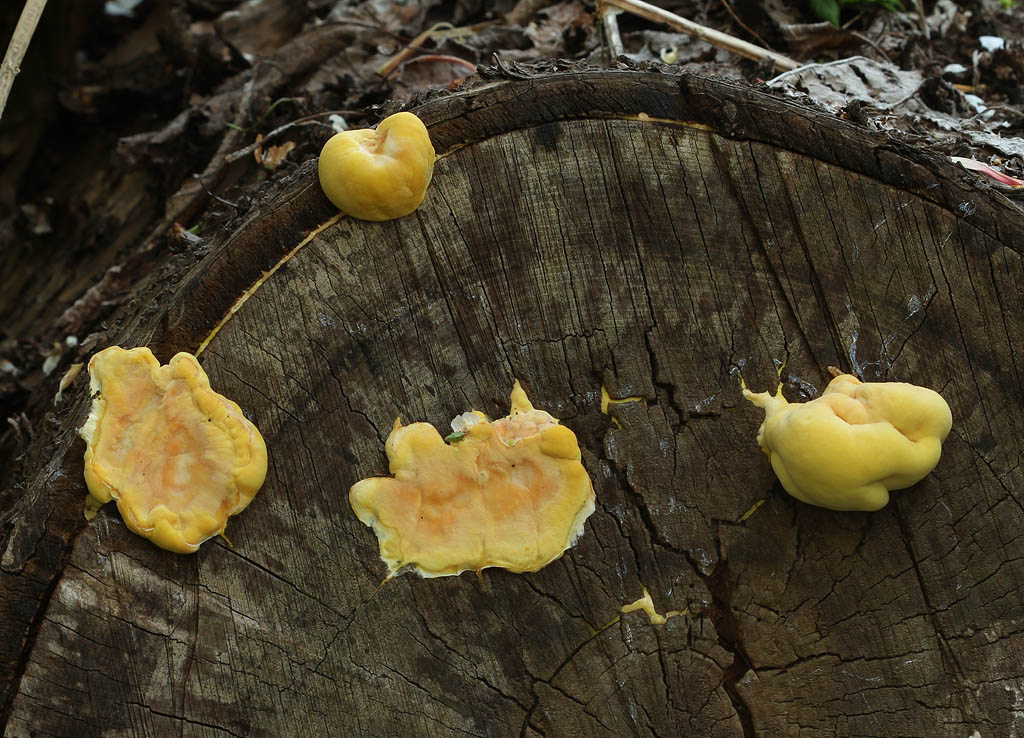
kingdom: Fungi
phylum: Basidiomycota
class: Agaricomycetes
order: Polyporales
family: Laetiporaceae
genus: Laetiporus
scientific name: Laetiporus sulphureus
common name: svovlporesvamp
